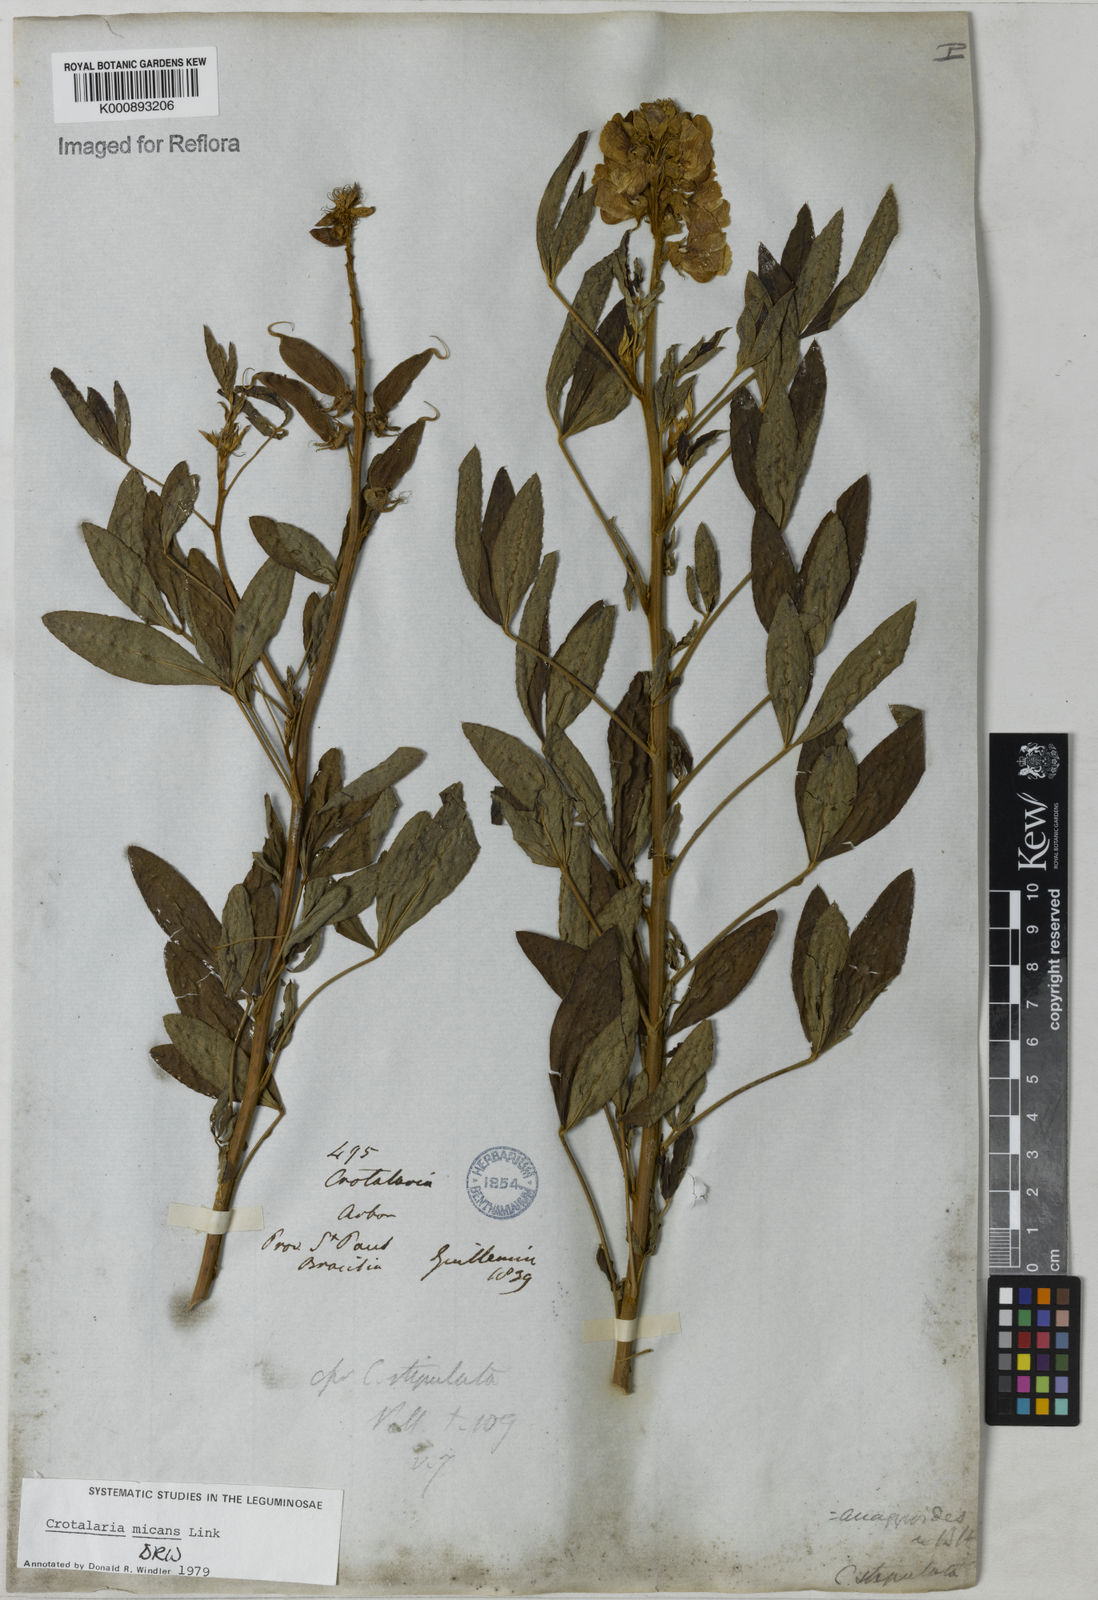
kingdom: Plantae
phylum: Tracheophyta
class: Magnoliopsida
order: Fabales
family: Fabaceae
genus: Crotalaria
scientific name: Crotalaria micans
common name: Caracas rattlebox
